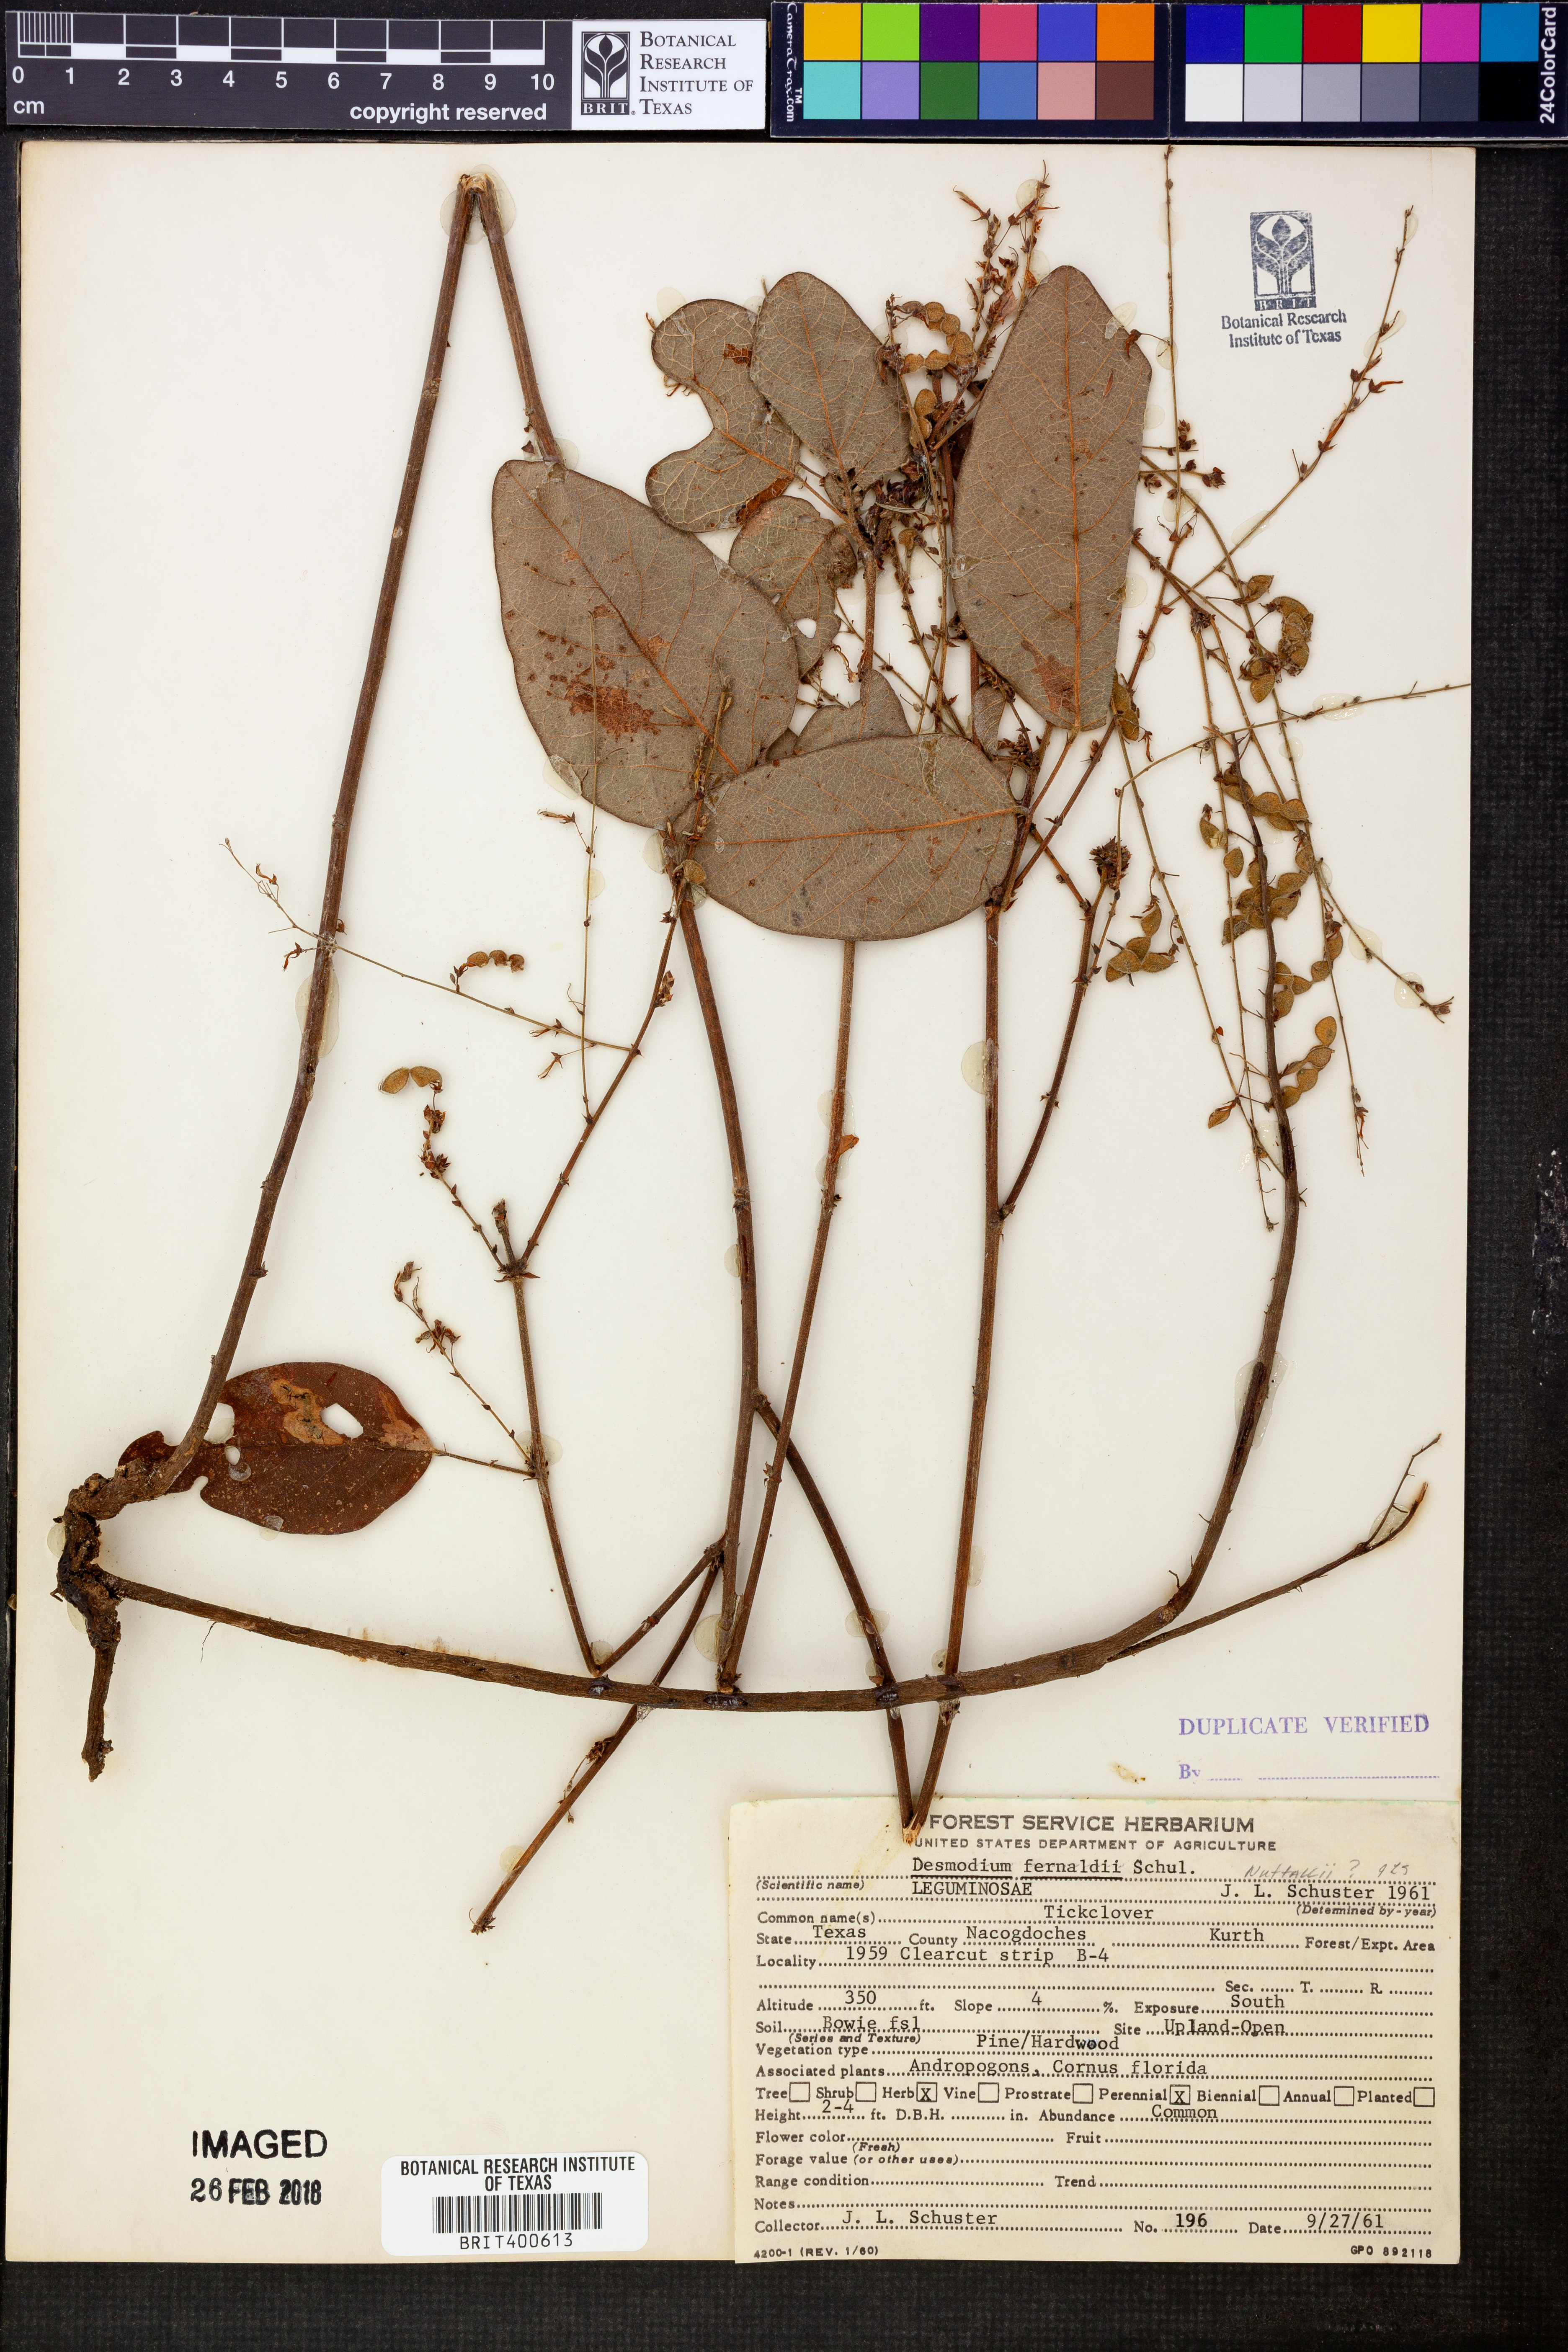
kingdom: Plantae
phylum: Tracheophyta
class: Magnoliopsida
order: Fabales
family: Fabaceae
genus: Desmodium
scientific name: Desmodium fernaldii
